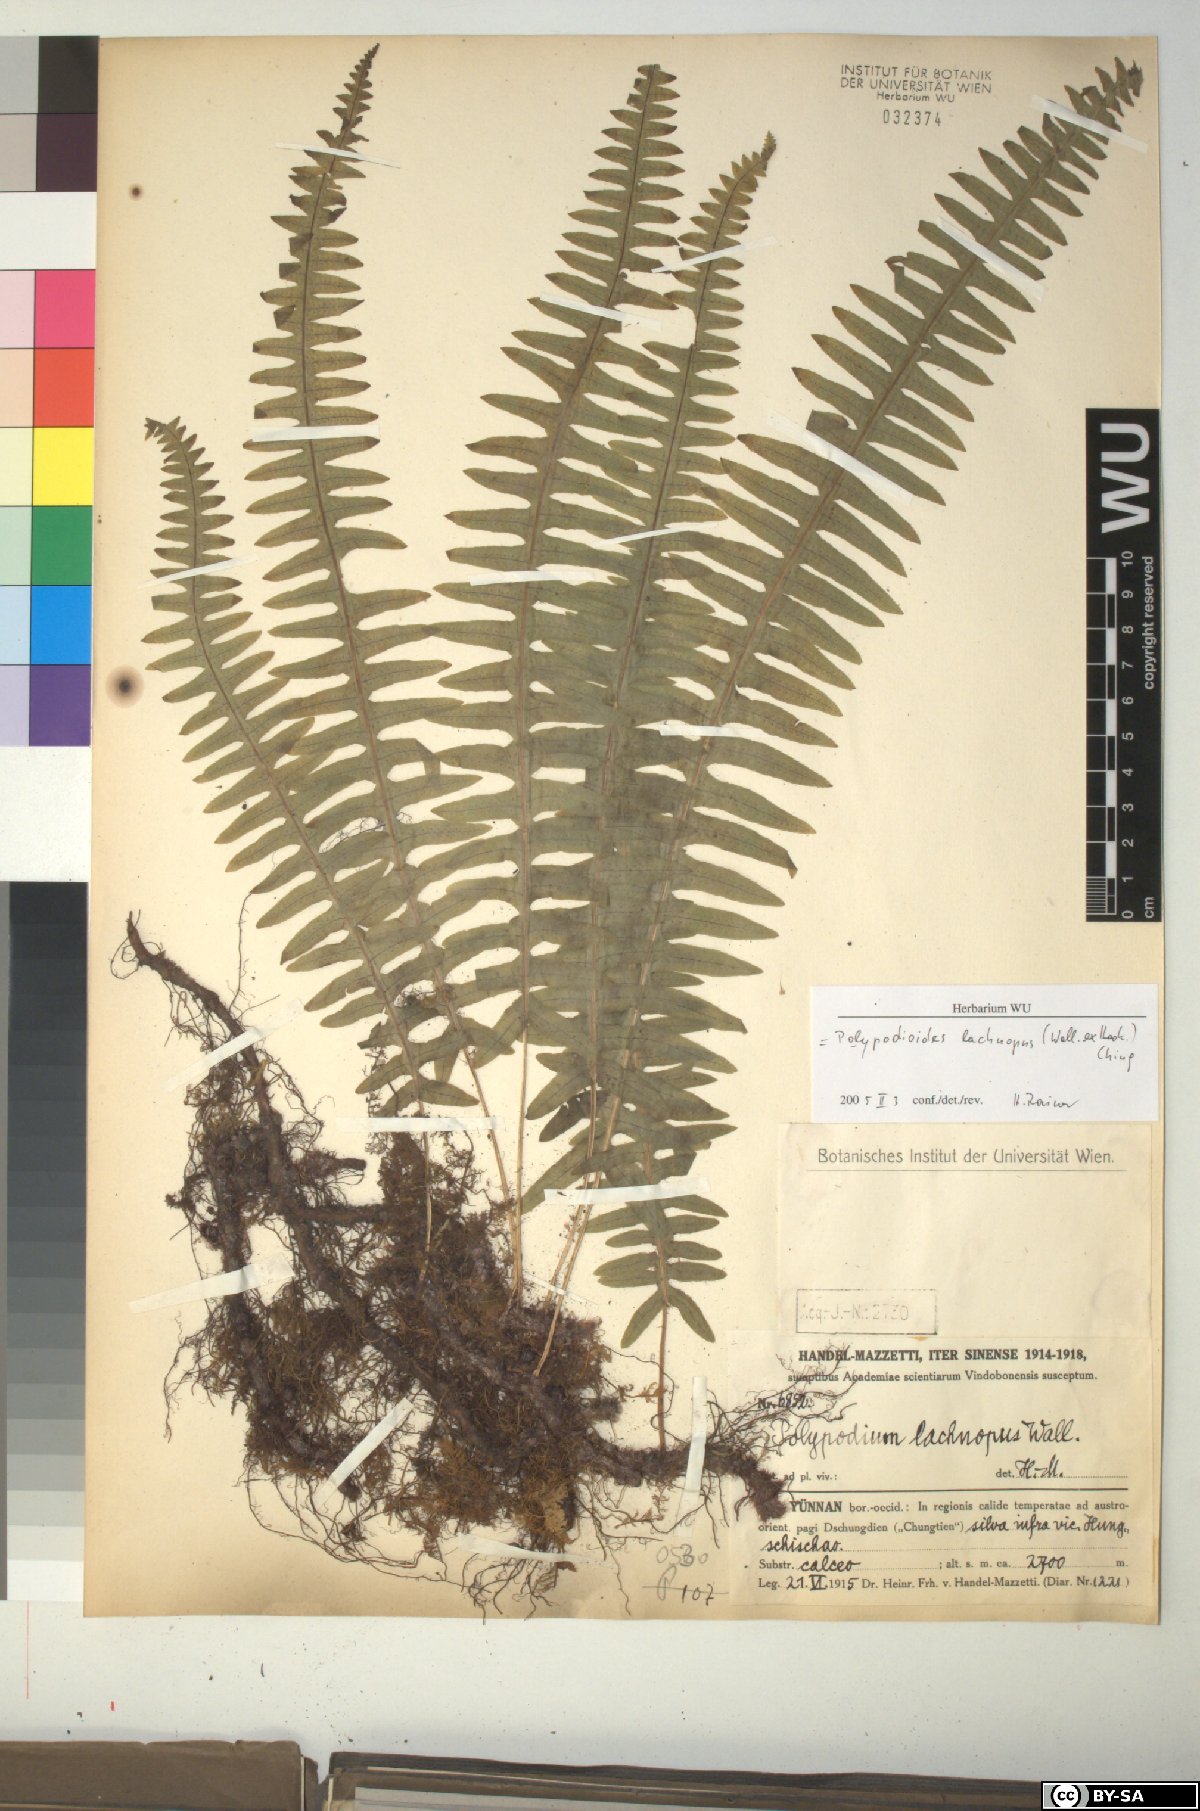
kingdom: Plantae
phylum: Tracheophyta
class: Polypodiopsida
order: Polypodiales
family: Polypodiaceae
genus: Goniophlebium
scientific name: Goniophlebium lachnopus
